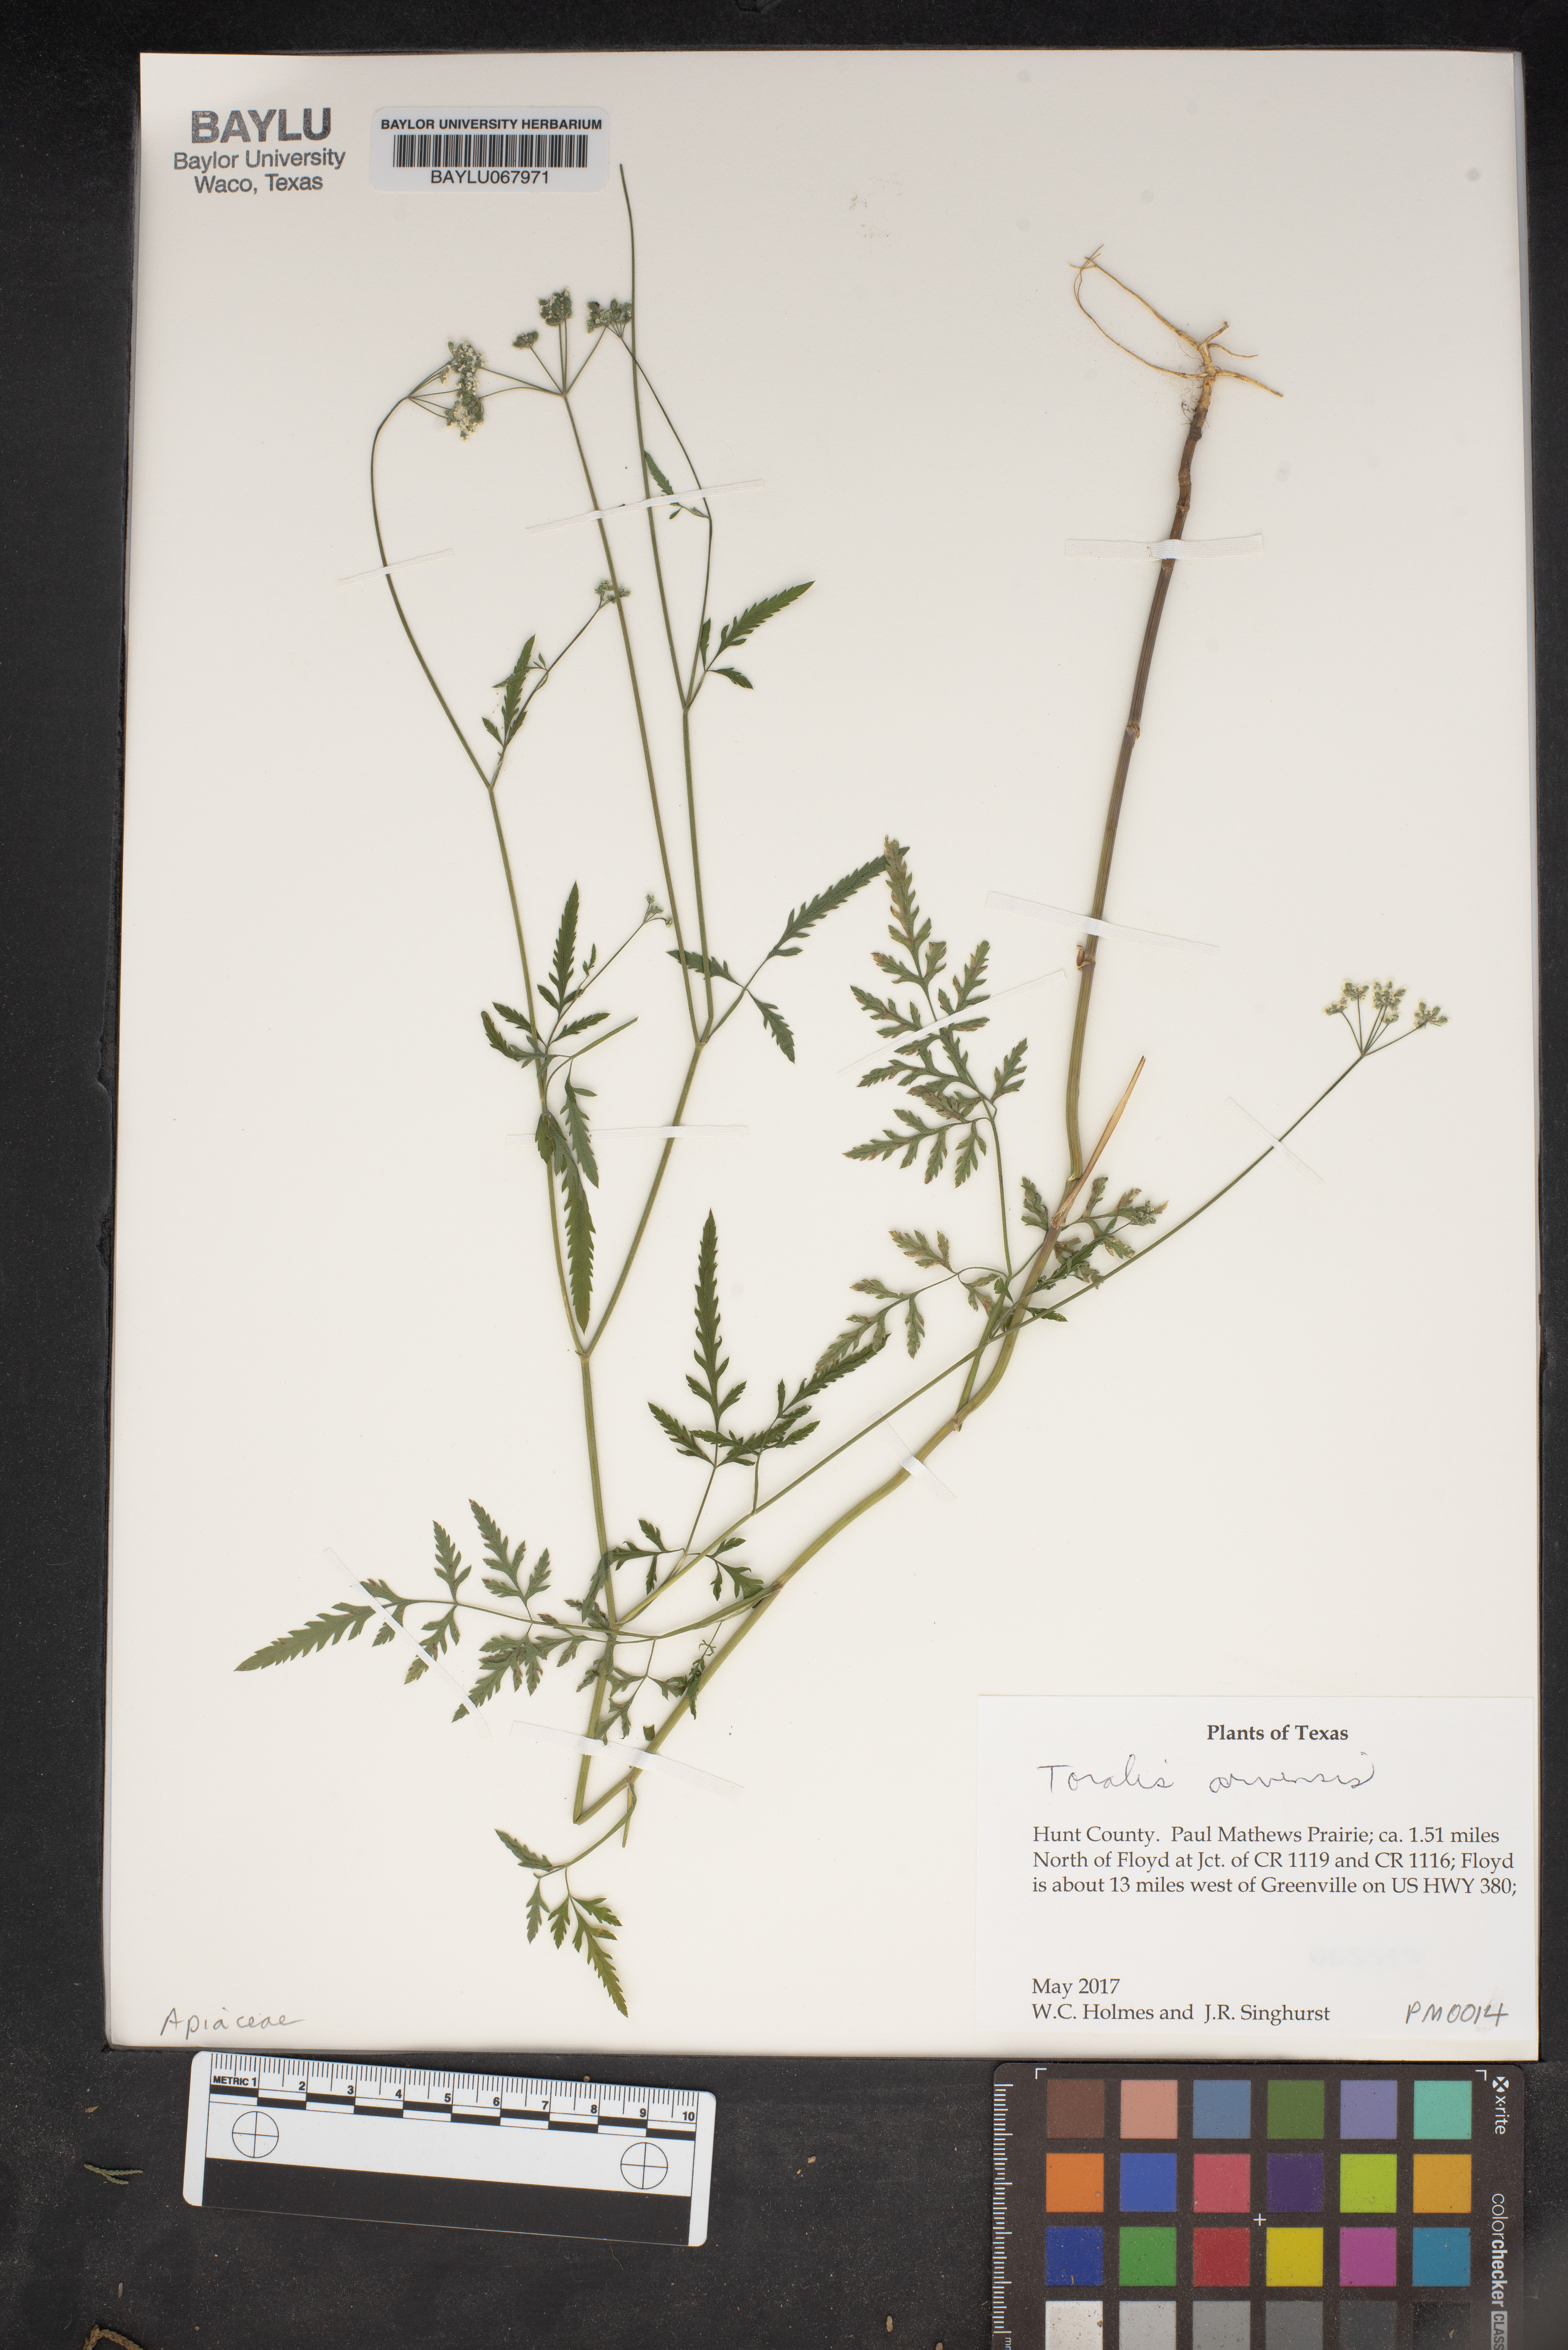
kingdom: Plantae
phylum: Tracheophyta
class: Magnoliopsida
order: Apiales
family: Apiaceae
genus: Torilis
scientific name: Torilis arvensis
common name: Spreading hedge-parsley
